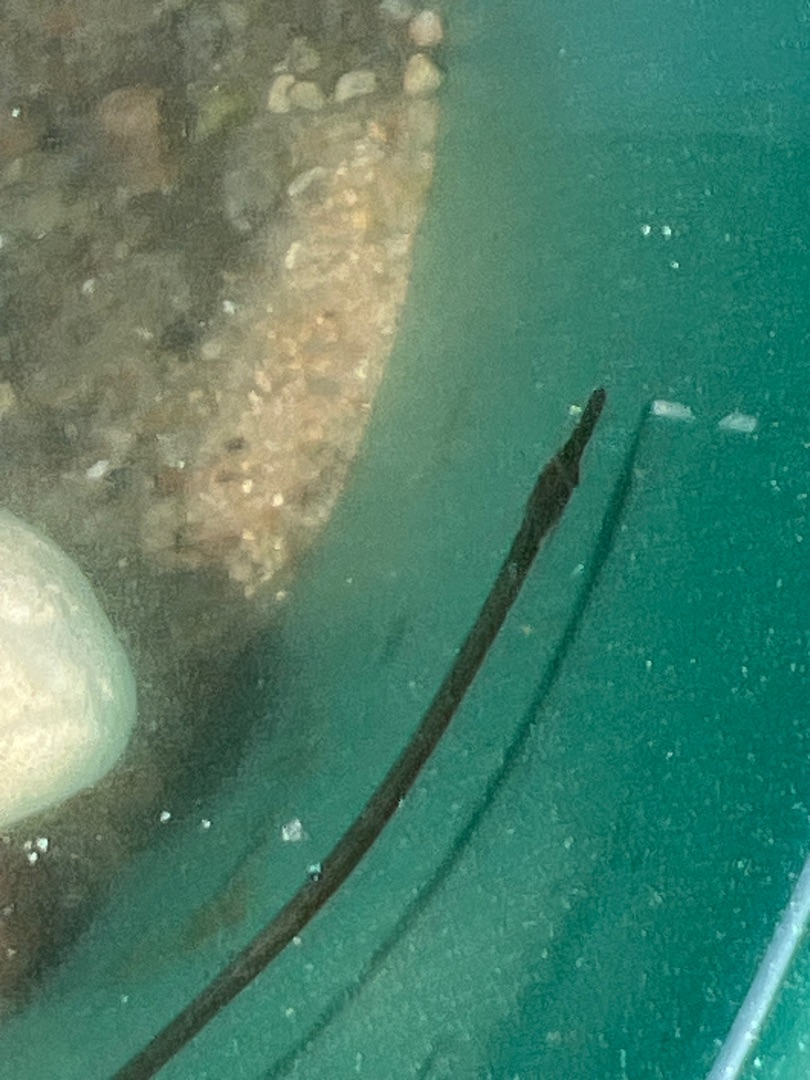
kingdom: Animalia
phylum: Chordata
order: Syngnathiformes
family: Syngnathidae
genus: Nerophis
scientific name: Nerophis ophidion
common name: Stor næbsnog
